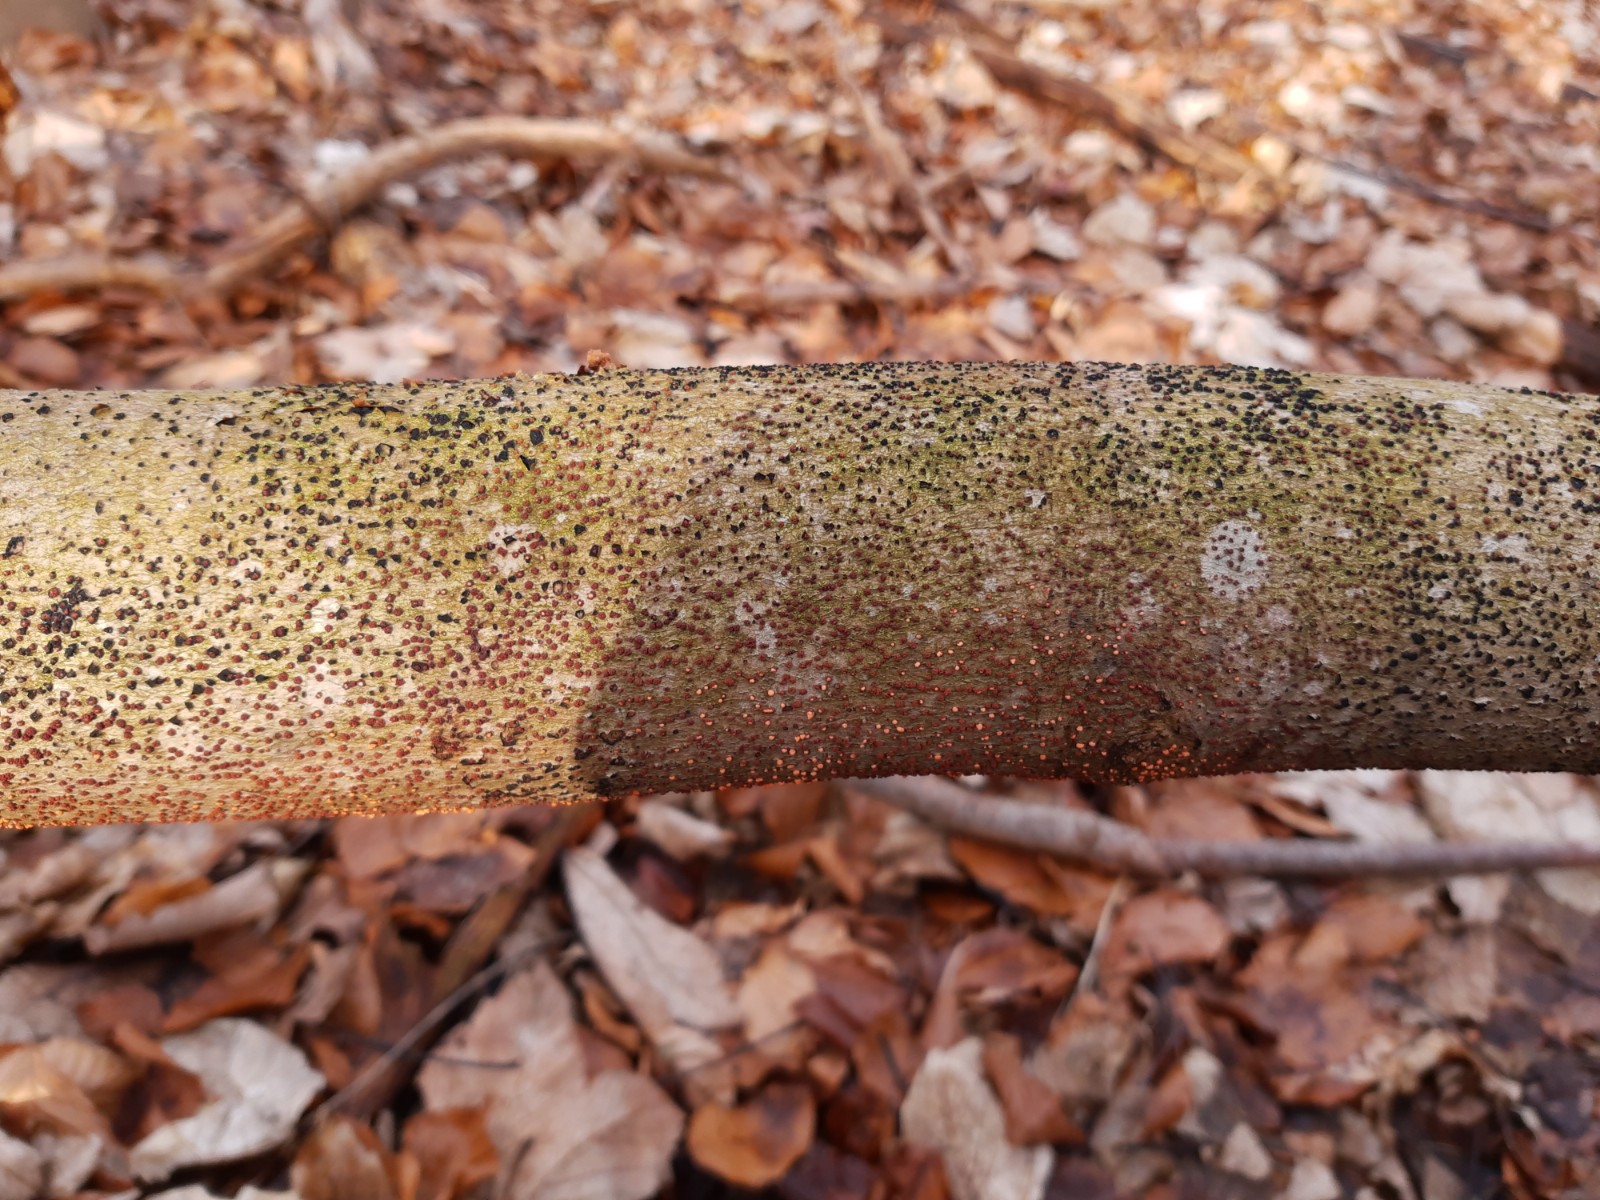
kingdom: Fungi
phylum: Ascomycota
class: Sordariomycetes
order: Coronophorales
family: Nitschkiaceae
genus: Nitschkia
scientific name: Nitschkia parasitans
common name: snyltende skålkerne
